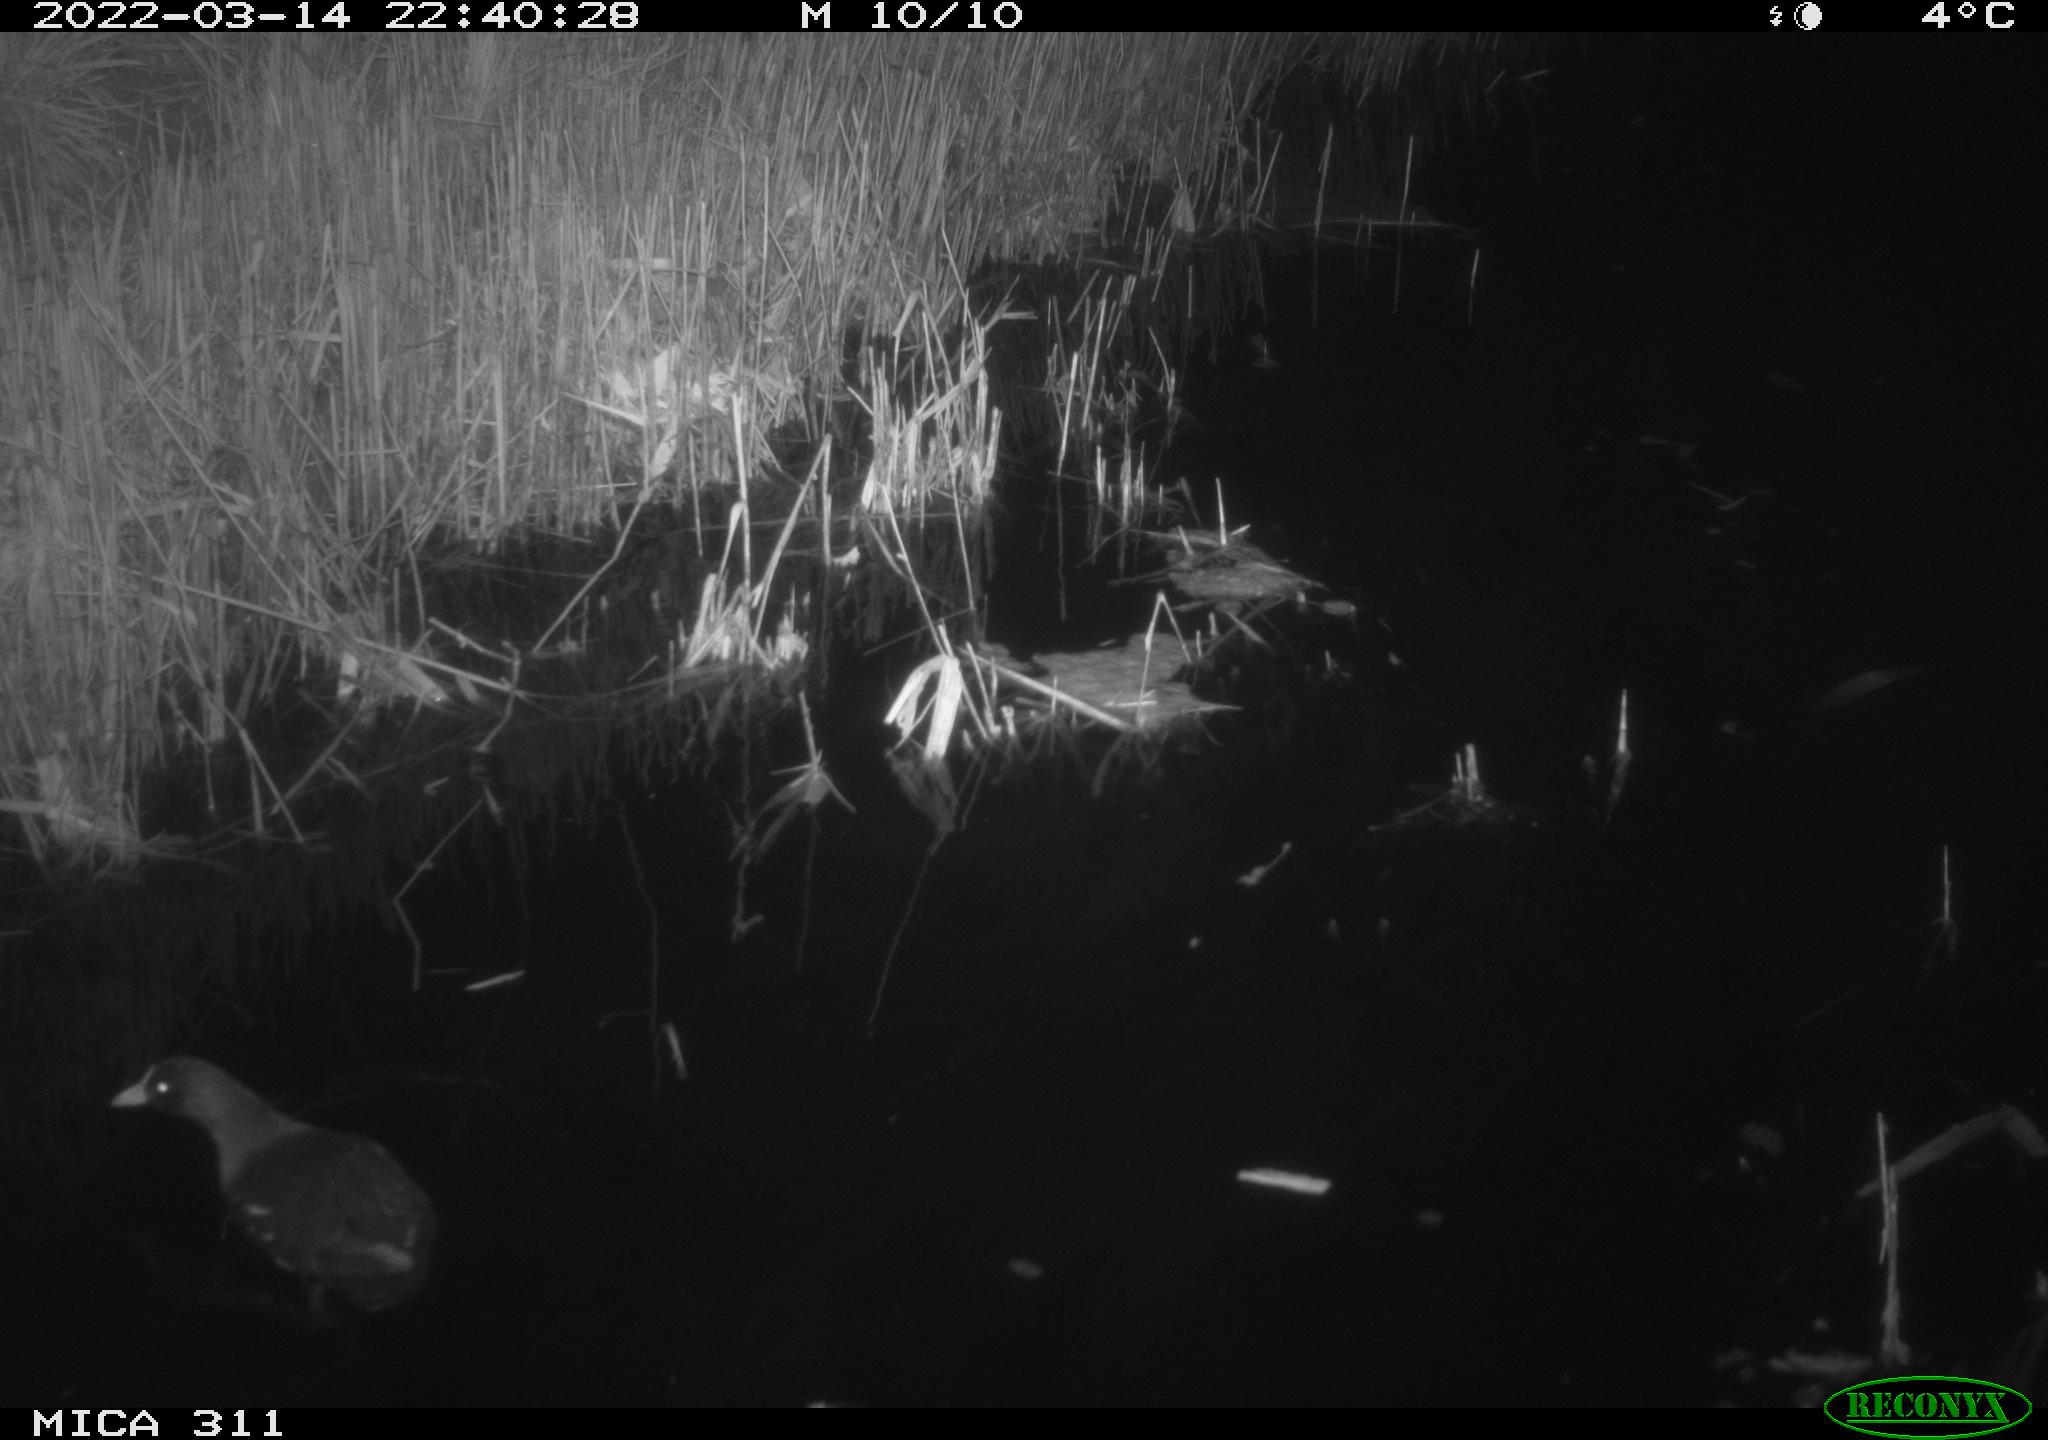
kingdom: Animalia
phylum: Chordata
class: Aves
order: Gruiformes
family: Rallidae
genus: Gallinula
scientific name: Gallinula chloropus
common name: Common moorhen
